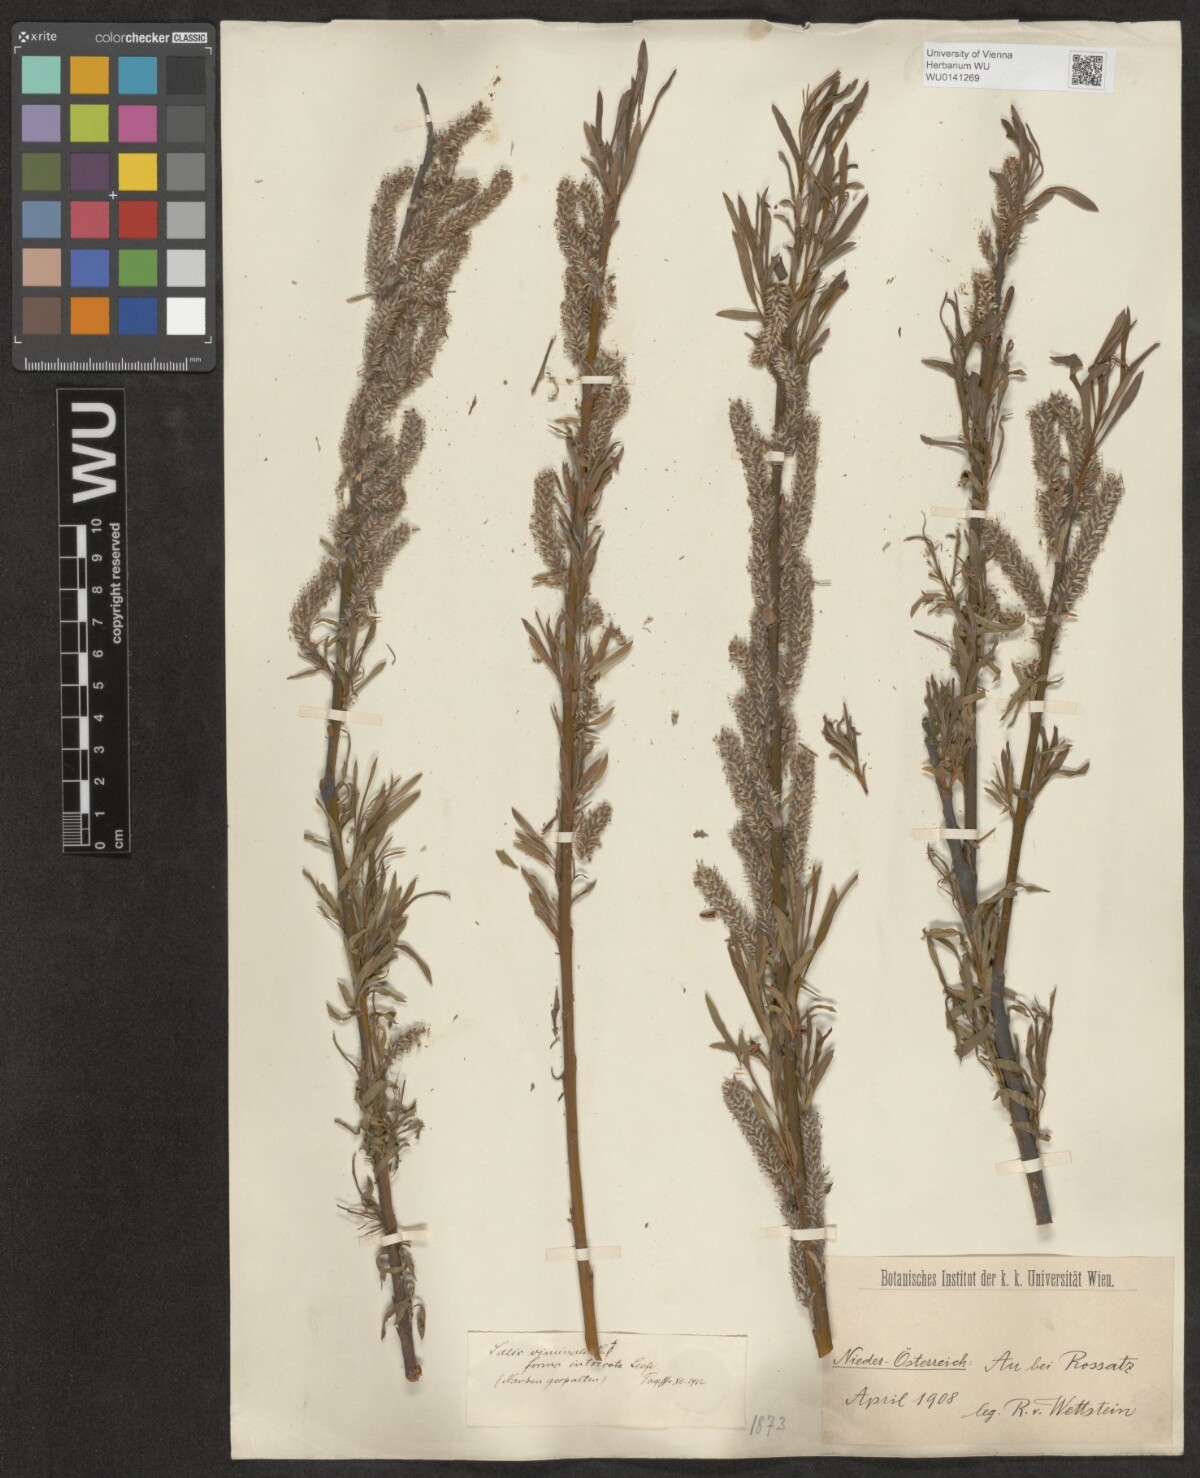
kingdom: Plantae
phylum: Tracheophyta
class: Magnoliopsida
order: Malpighiales
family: Salicaceae
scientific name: Salicaceae
